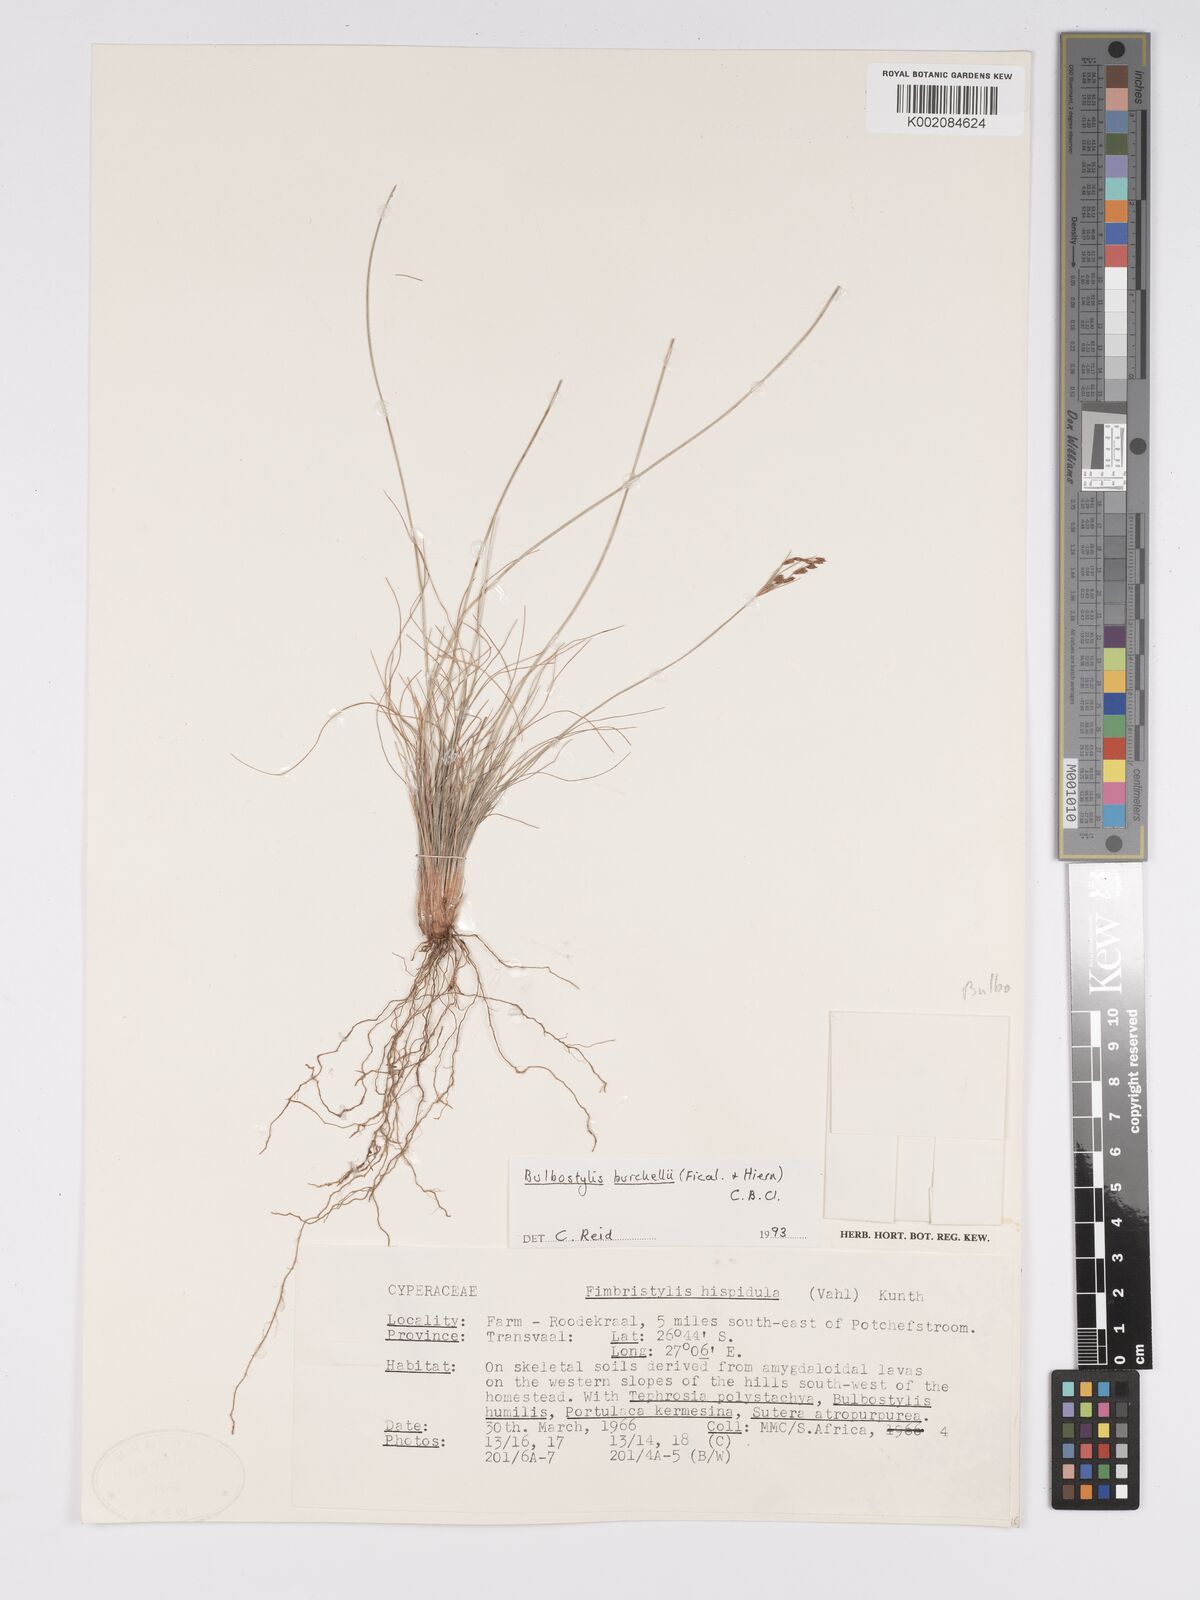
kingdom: Plantae
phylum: Tracheophyta
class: Liliopsida
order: Poales
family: Cyperaceae
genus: Bulbostylis
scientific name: Bulbostylis
